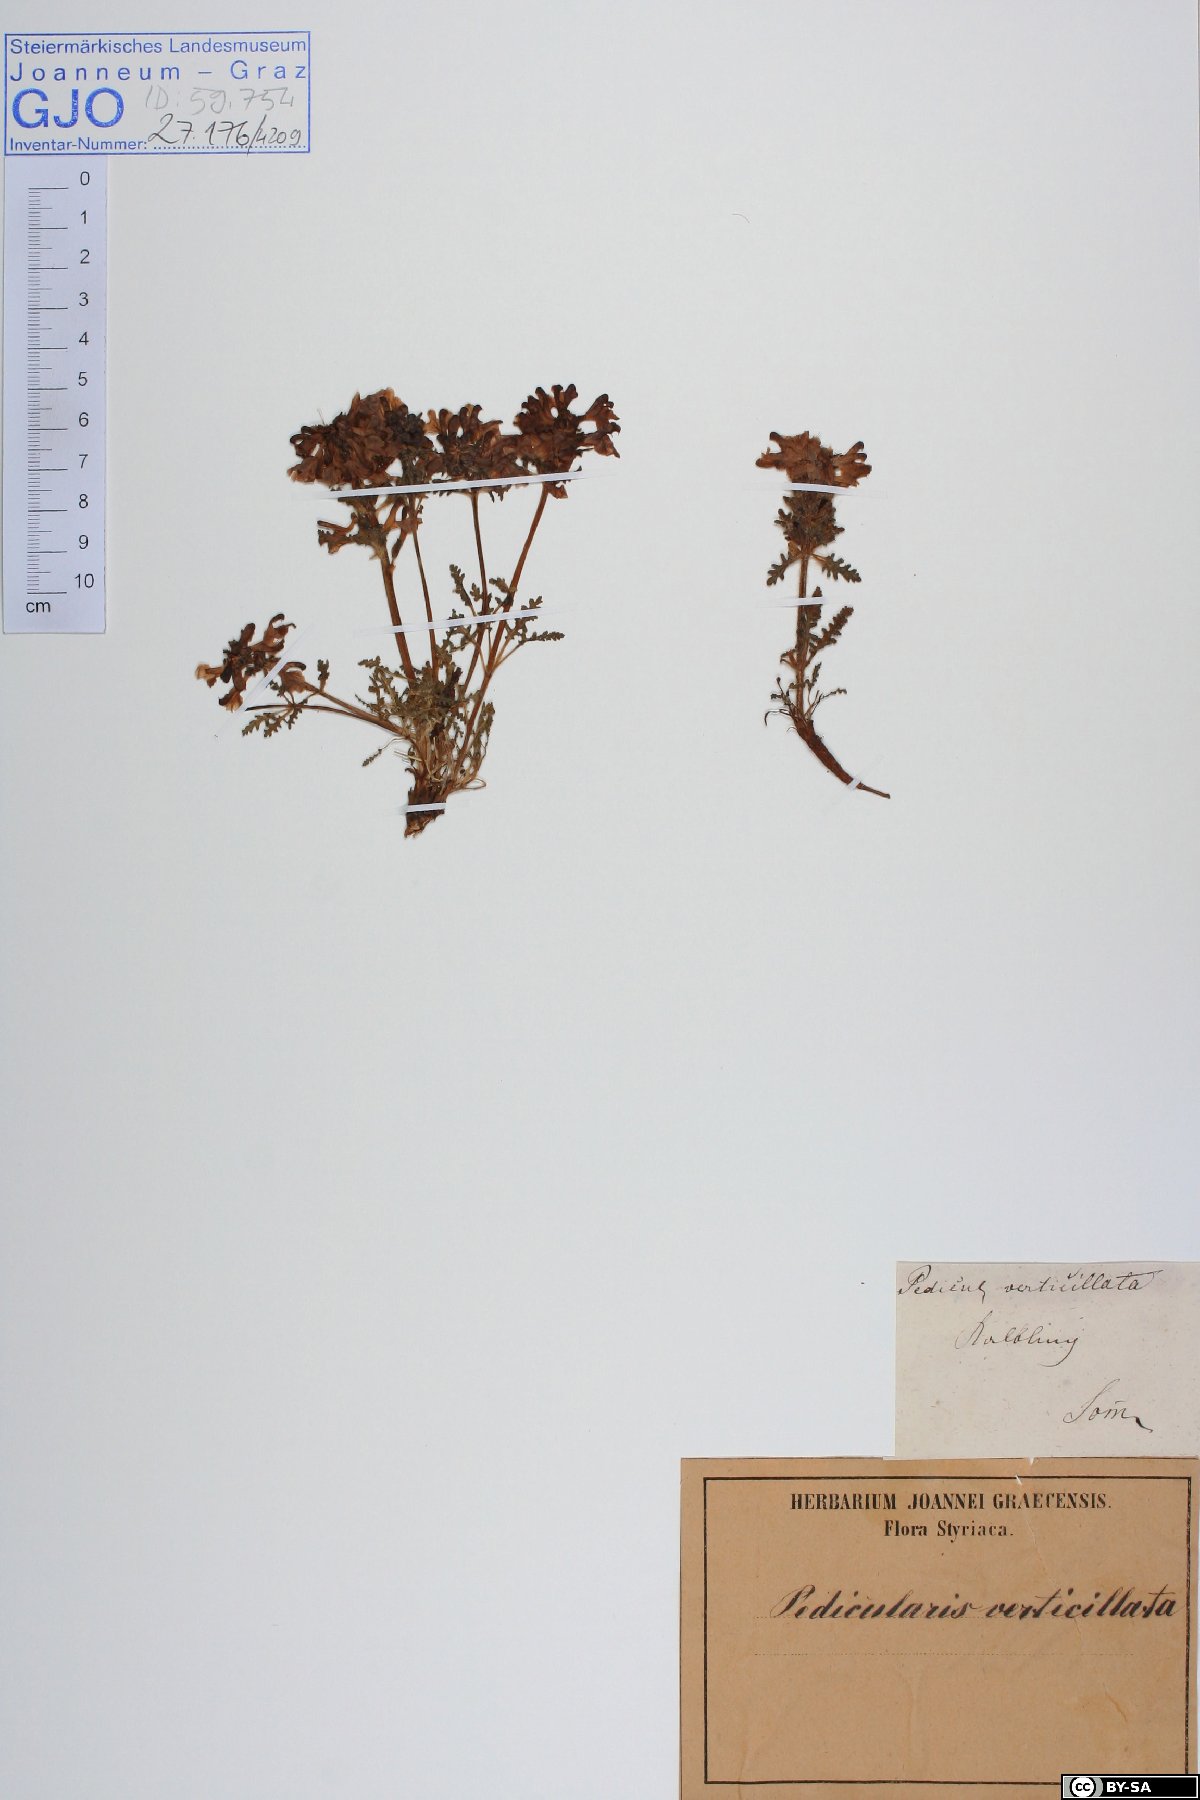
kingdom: Plantae
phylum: Tracheophyta
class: Magnoliopsida
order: Lamiales
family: Orobanchaceae
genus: Pedicularis
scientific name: Pedicularis verticillata
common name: Whorled lousewort
